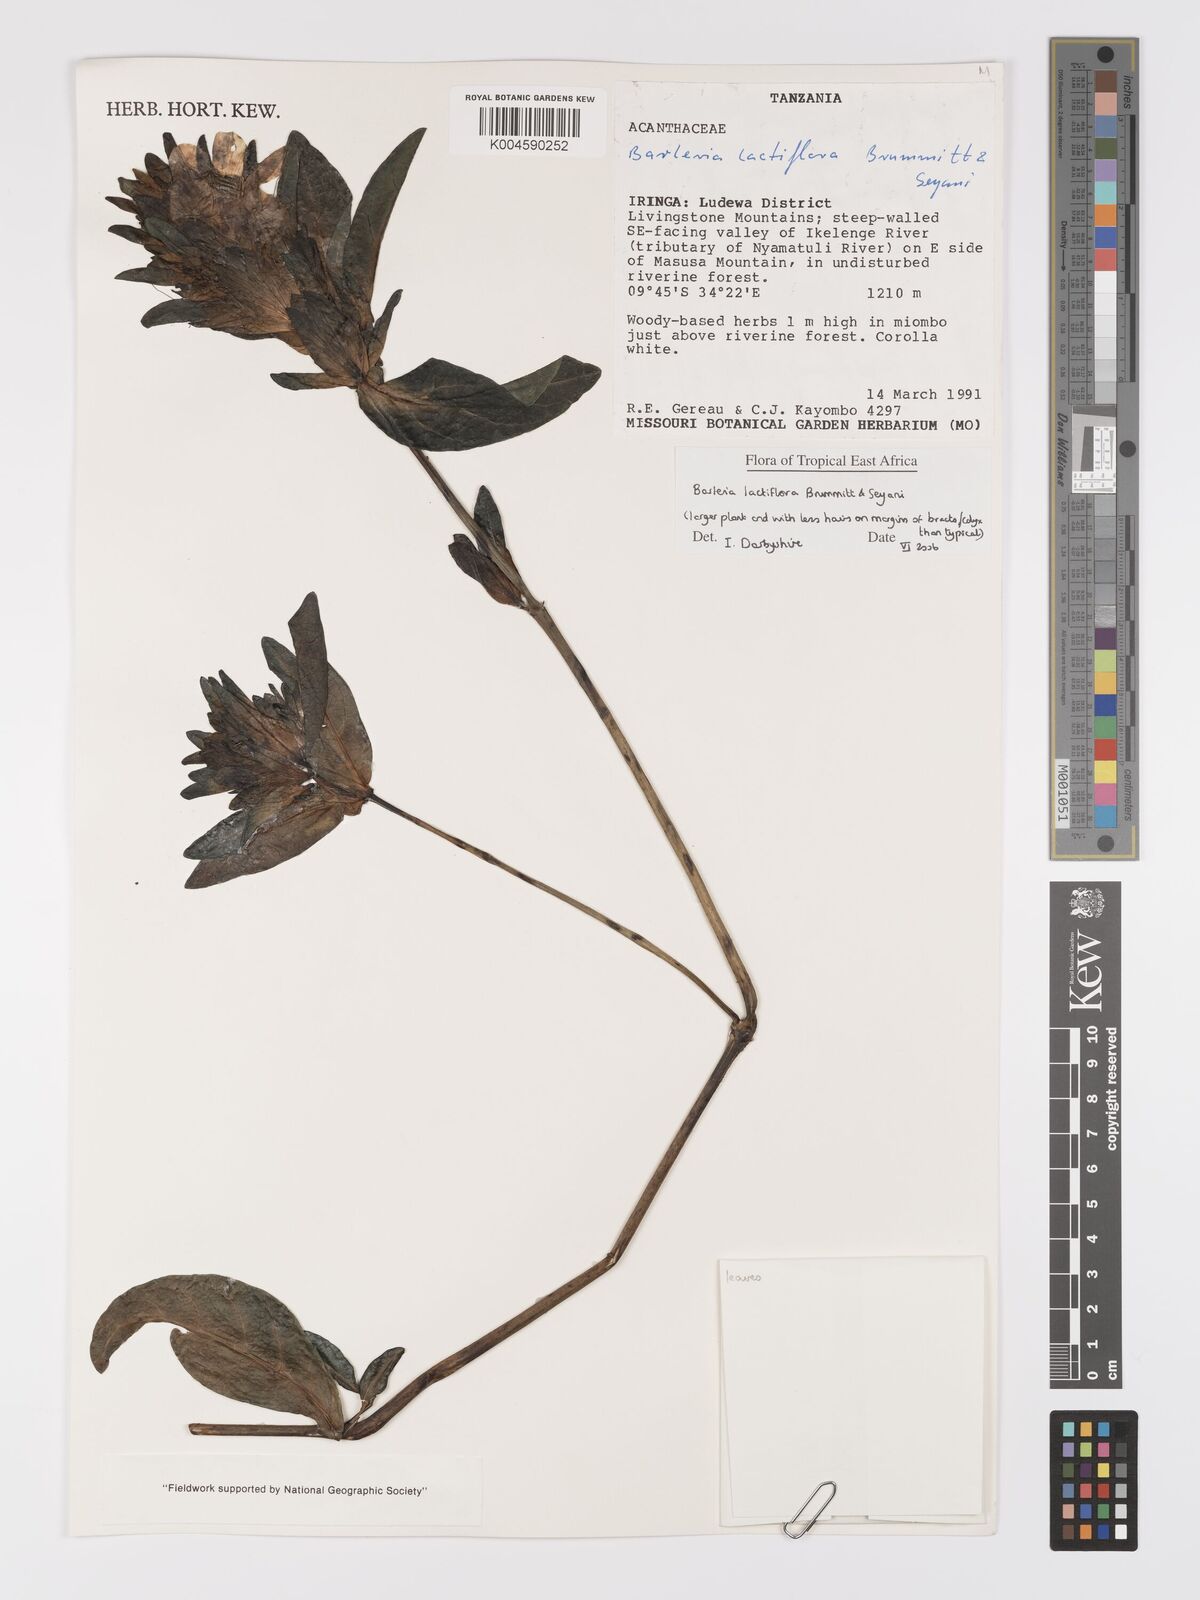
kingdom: Plantae
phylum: Tracheophyta
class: Magnoliopsida
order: Lamiales
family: Acanthaceae
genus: Barleria
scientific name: Barleria lactiflora
